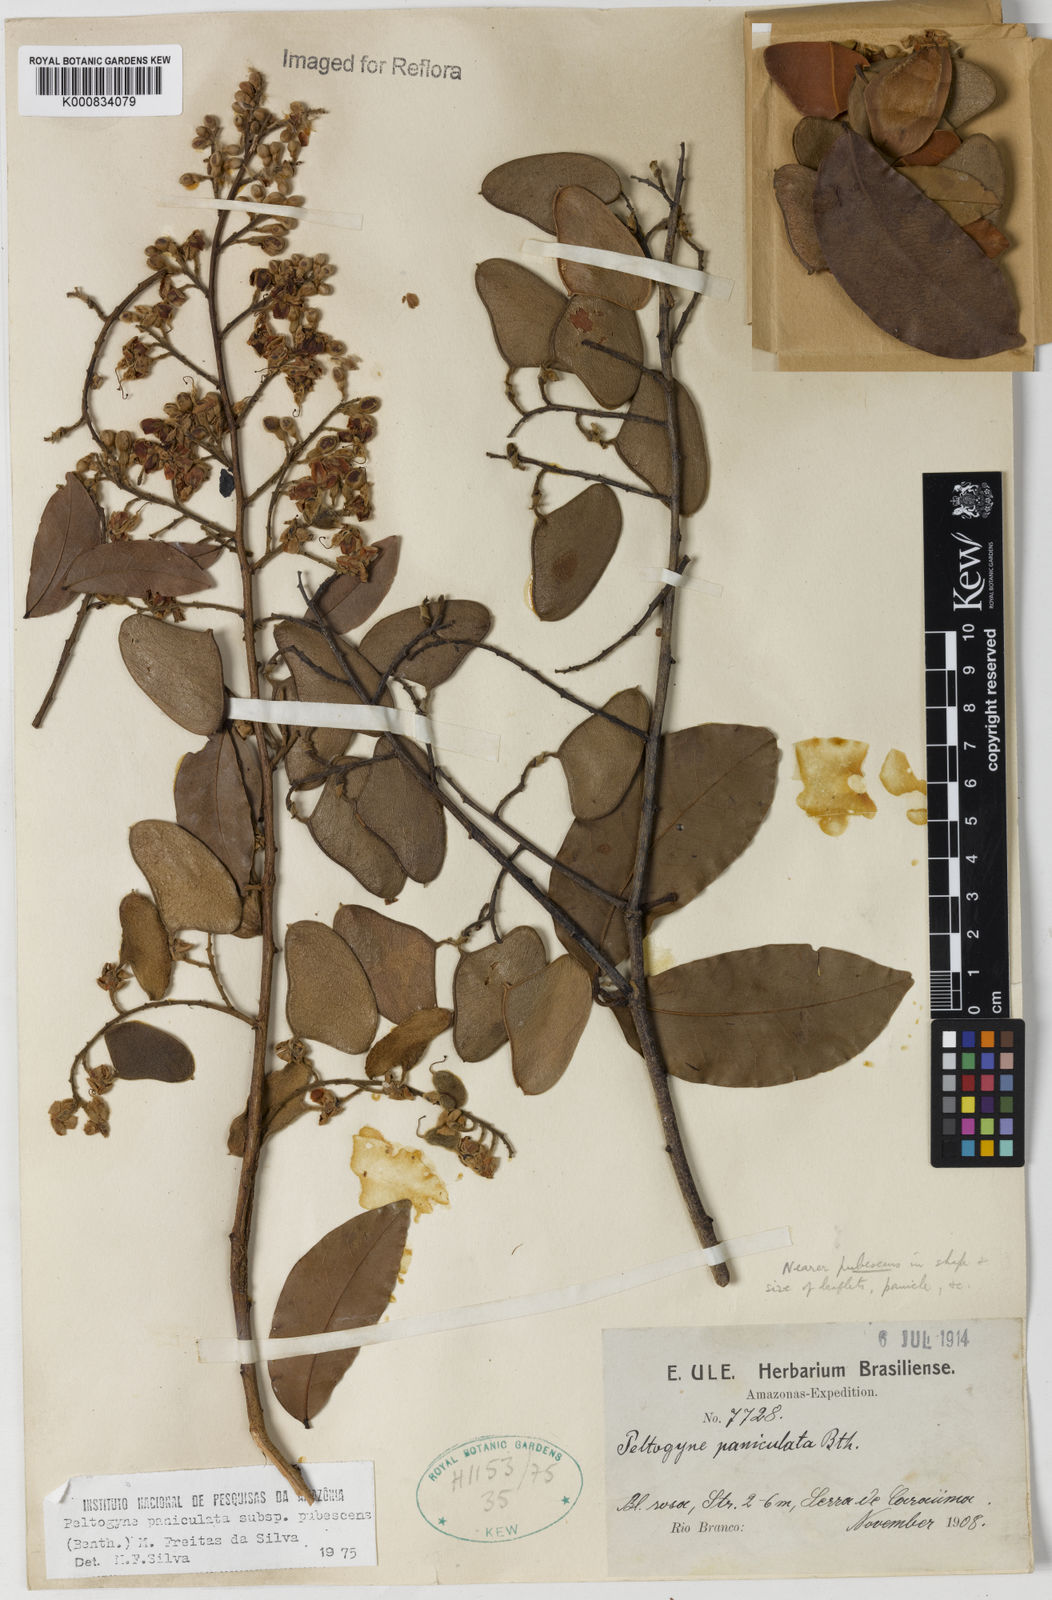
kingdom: Plantae
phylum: Tracheophyta
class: Magnoliopsida
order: Fabales
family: Fabaceae
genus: Peltogyne
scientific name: Peltogyne paniculata
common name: Purpleheart
